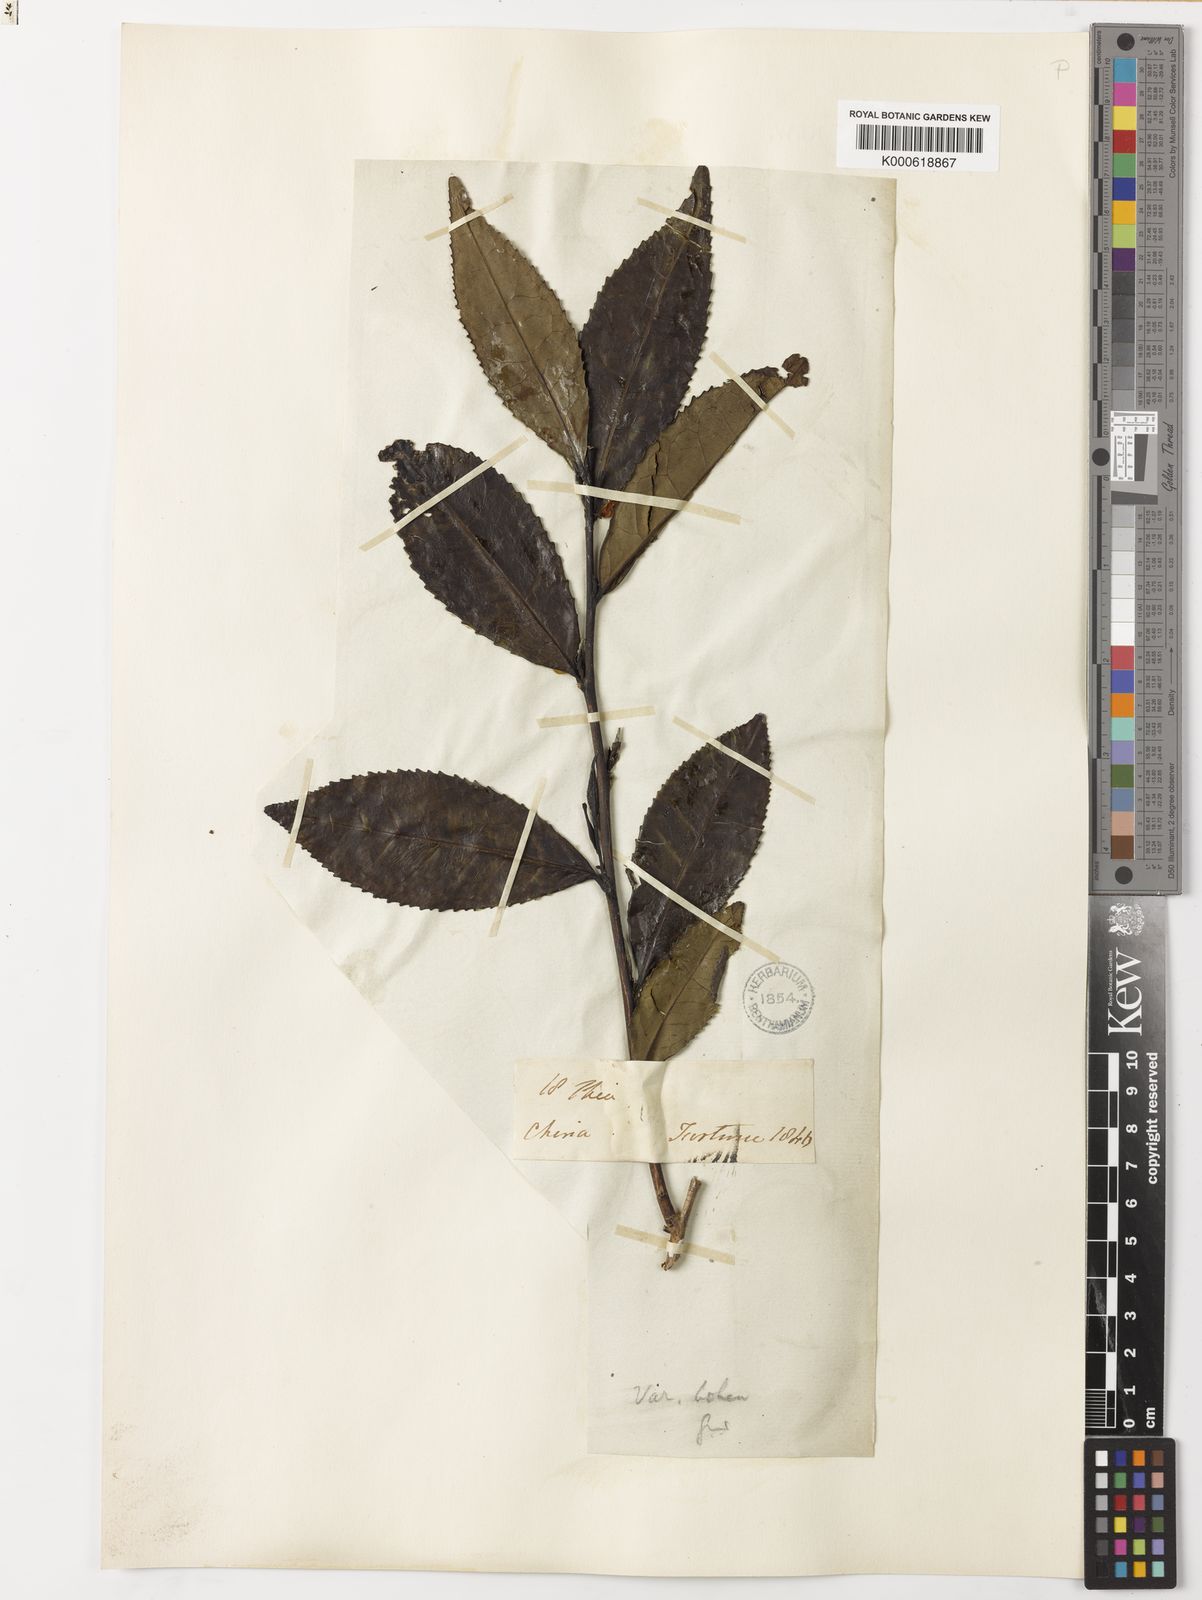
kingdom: Plantae
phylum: Tracheophyta
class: Magnoliopsida
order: Ericales
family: Theaceae
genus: Camellia
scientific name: Camellia
